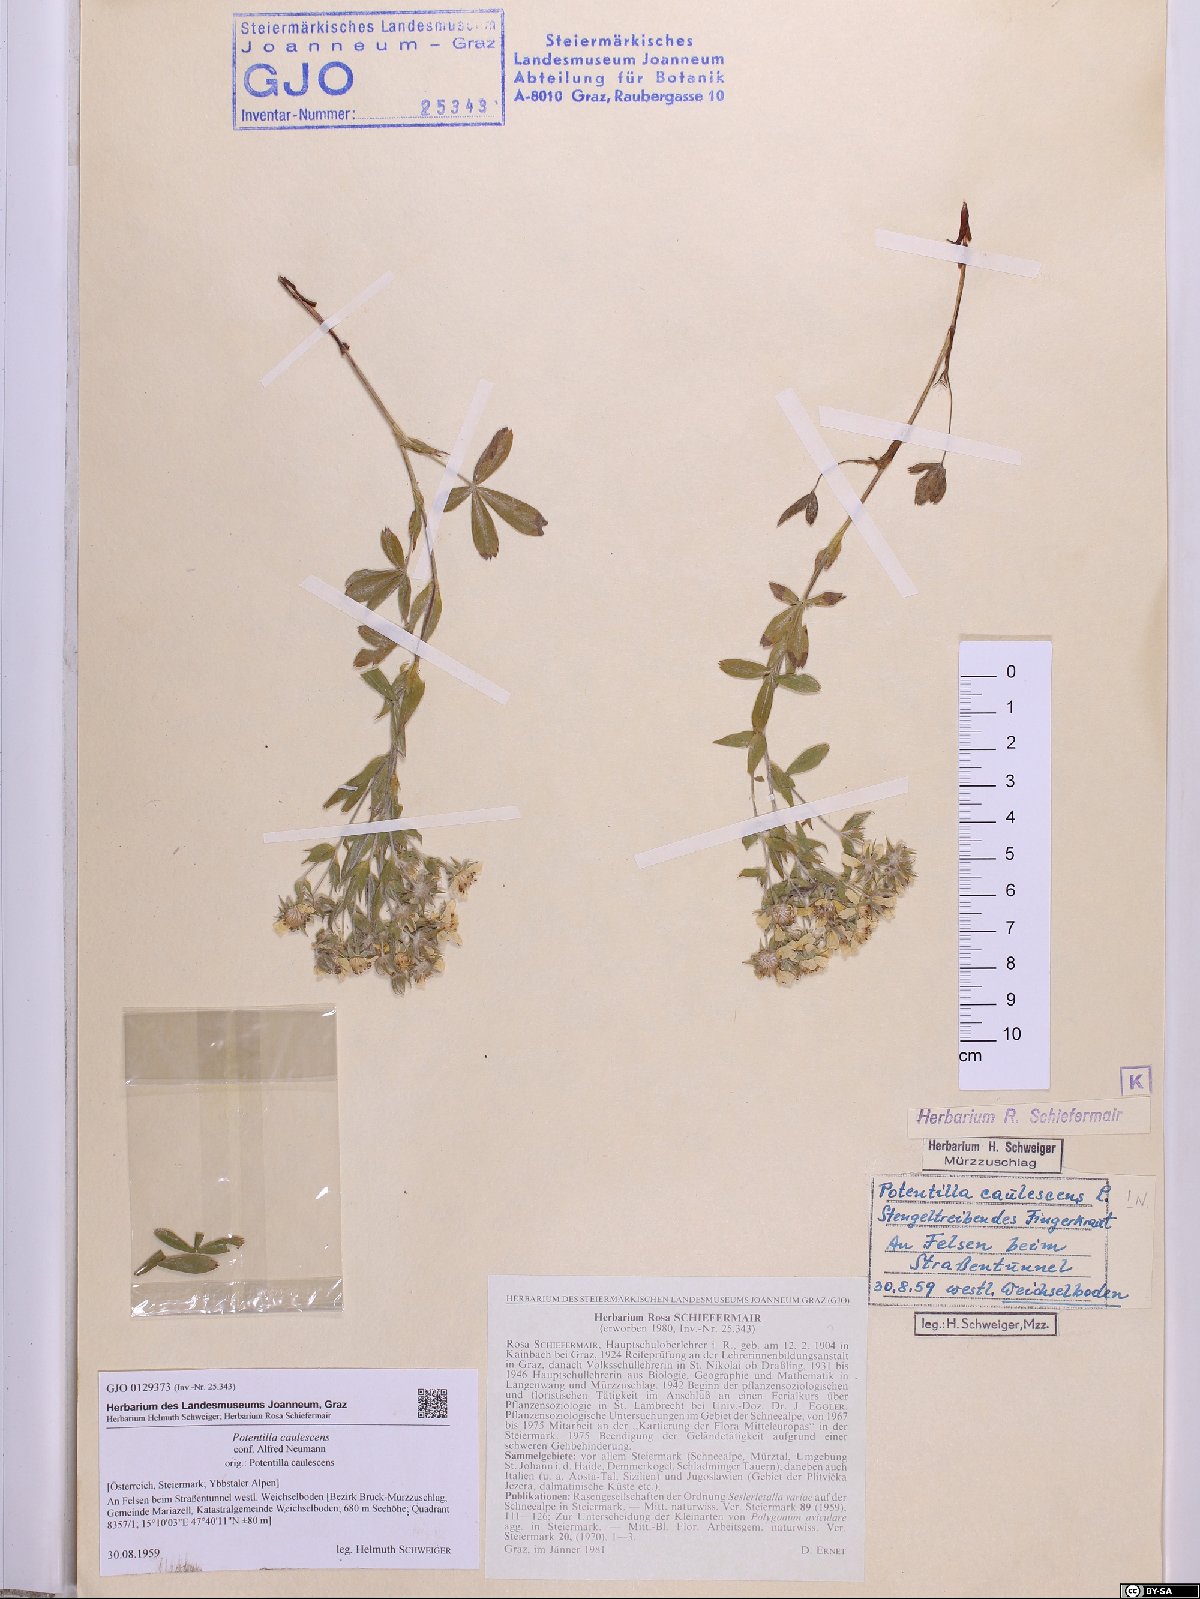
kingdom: Plantae
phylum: Tracheophyta
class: Magnoliopsida
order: Rosales
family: Rosaceae
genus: Potentilla
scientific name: Potentilla caulescens
